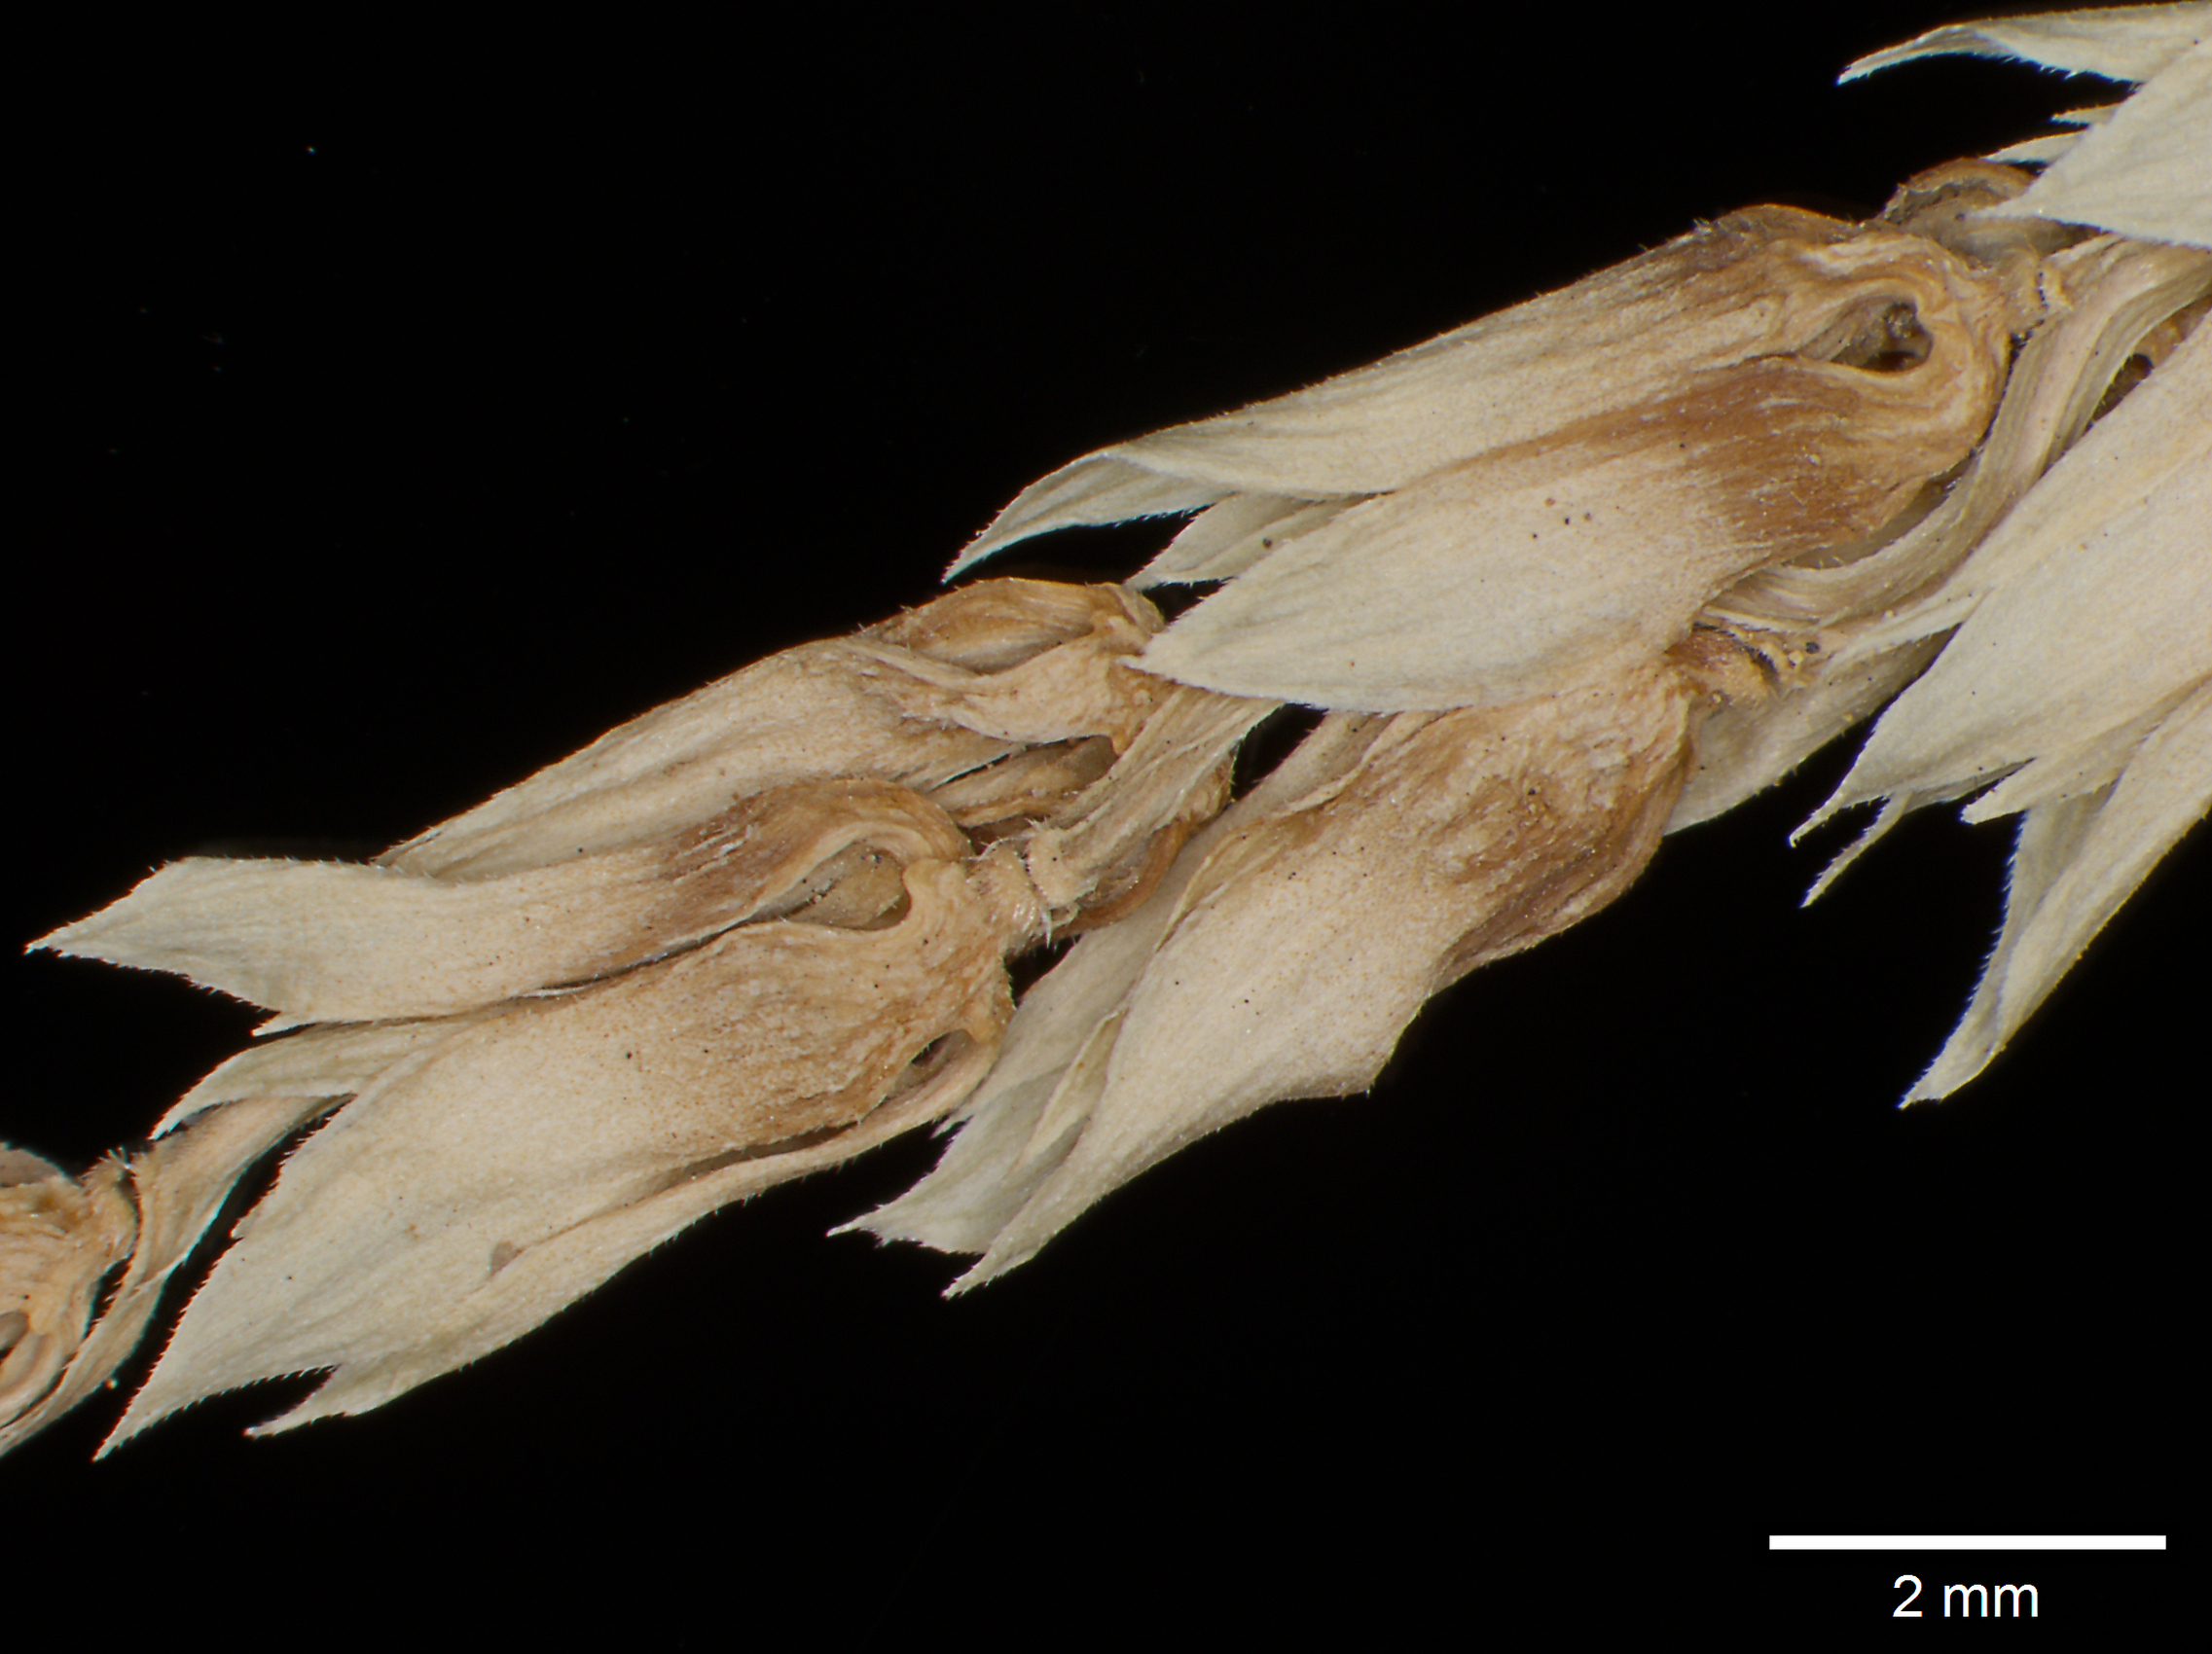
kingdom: Plantae
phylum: Tracheophyta
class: Liliopsida
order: Poales
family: Poaceae
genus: Anthephora
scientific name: Anthephora hermaphrodita
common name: Oldfield grass
